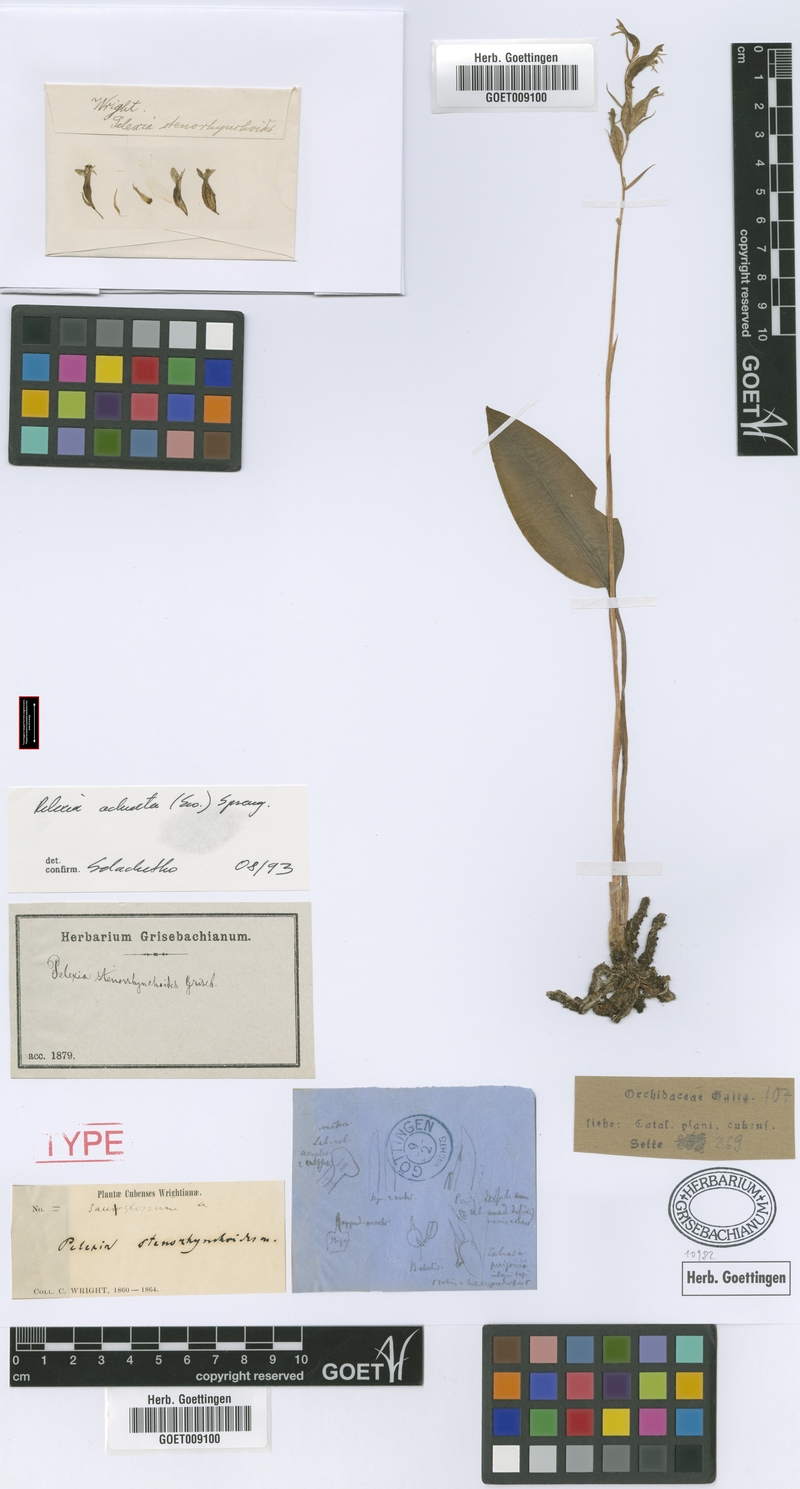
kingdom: Plantae
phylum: Tracheophyta
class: Liliopsida
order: Asparagales
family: Orchidaceae
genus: Pelexia
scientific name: Pelexia adnata
